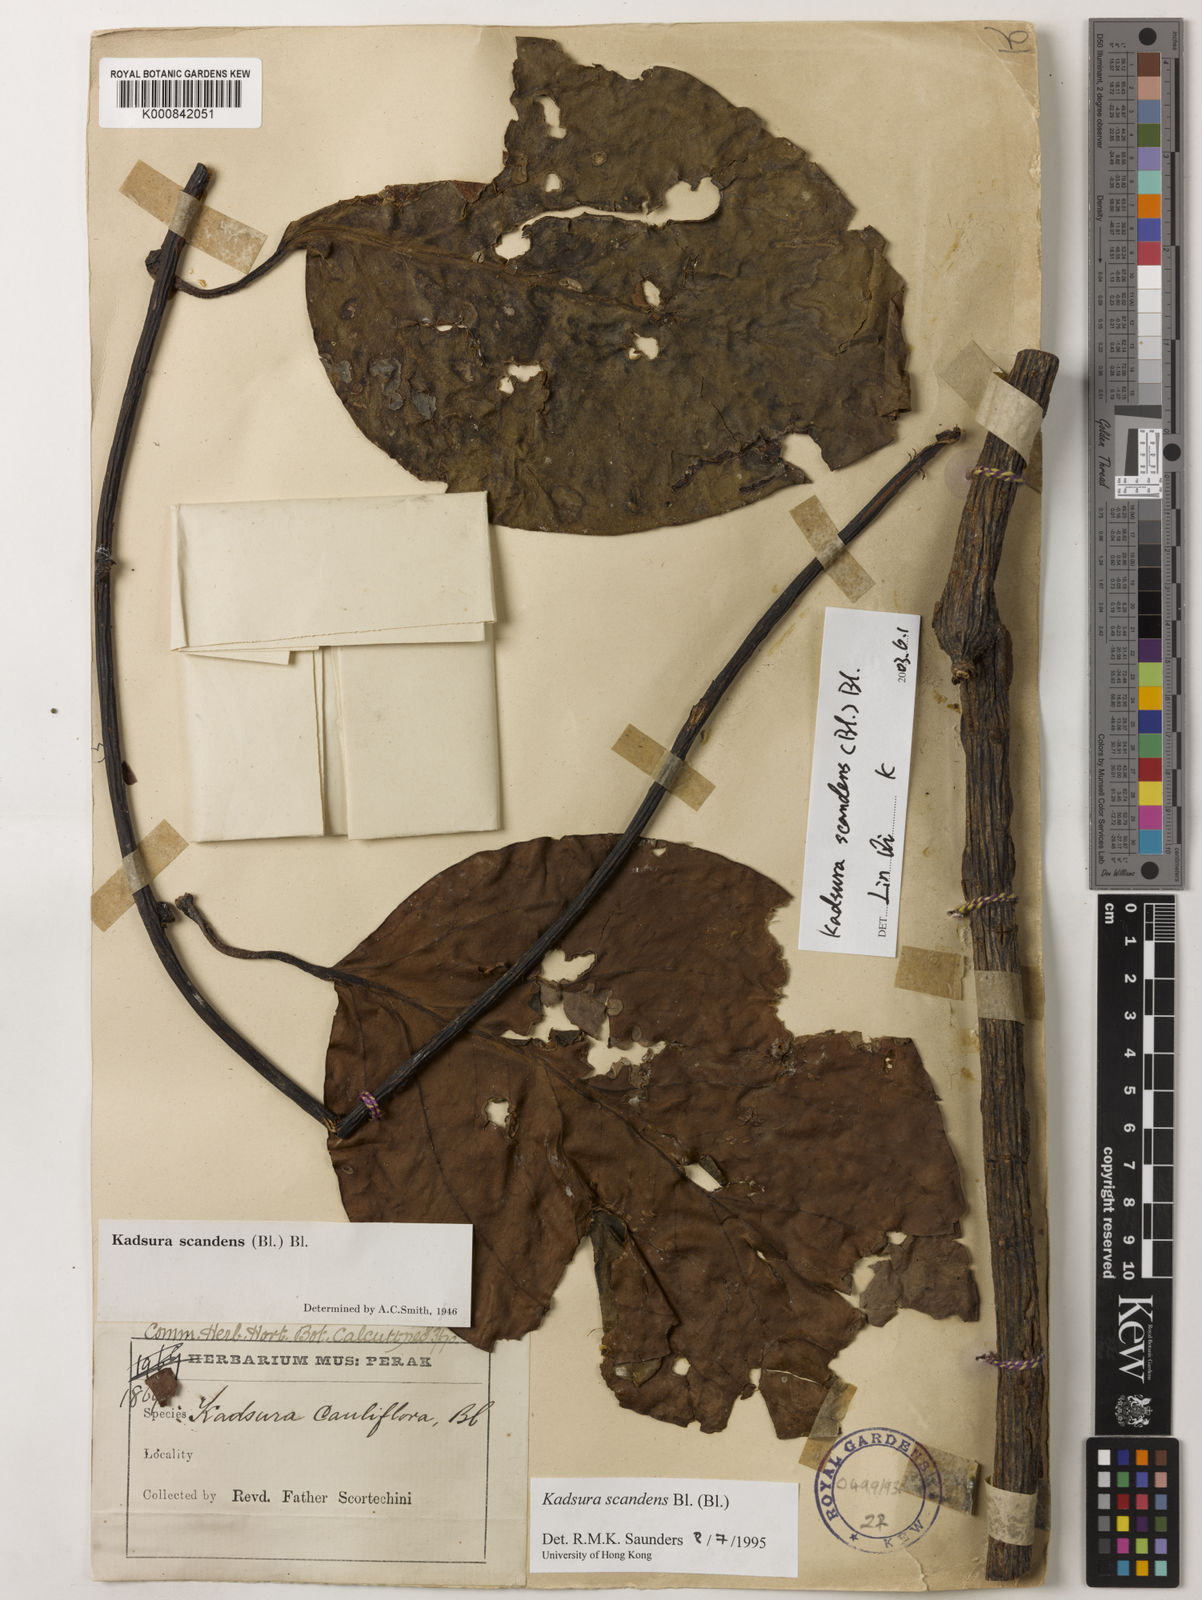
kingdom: Plantae
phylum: Tracheophyta
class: Magnoliopsida
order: Austrobaileyales
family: Schisandraceae
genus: Kadsura
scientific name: Kadsura scandens
